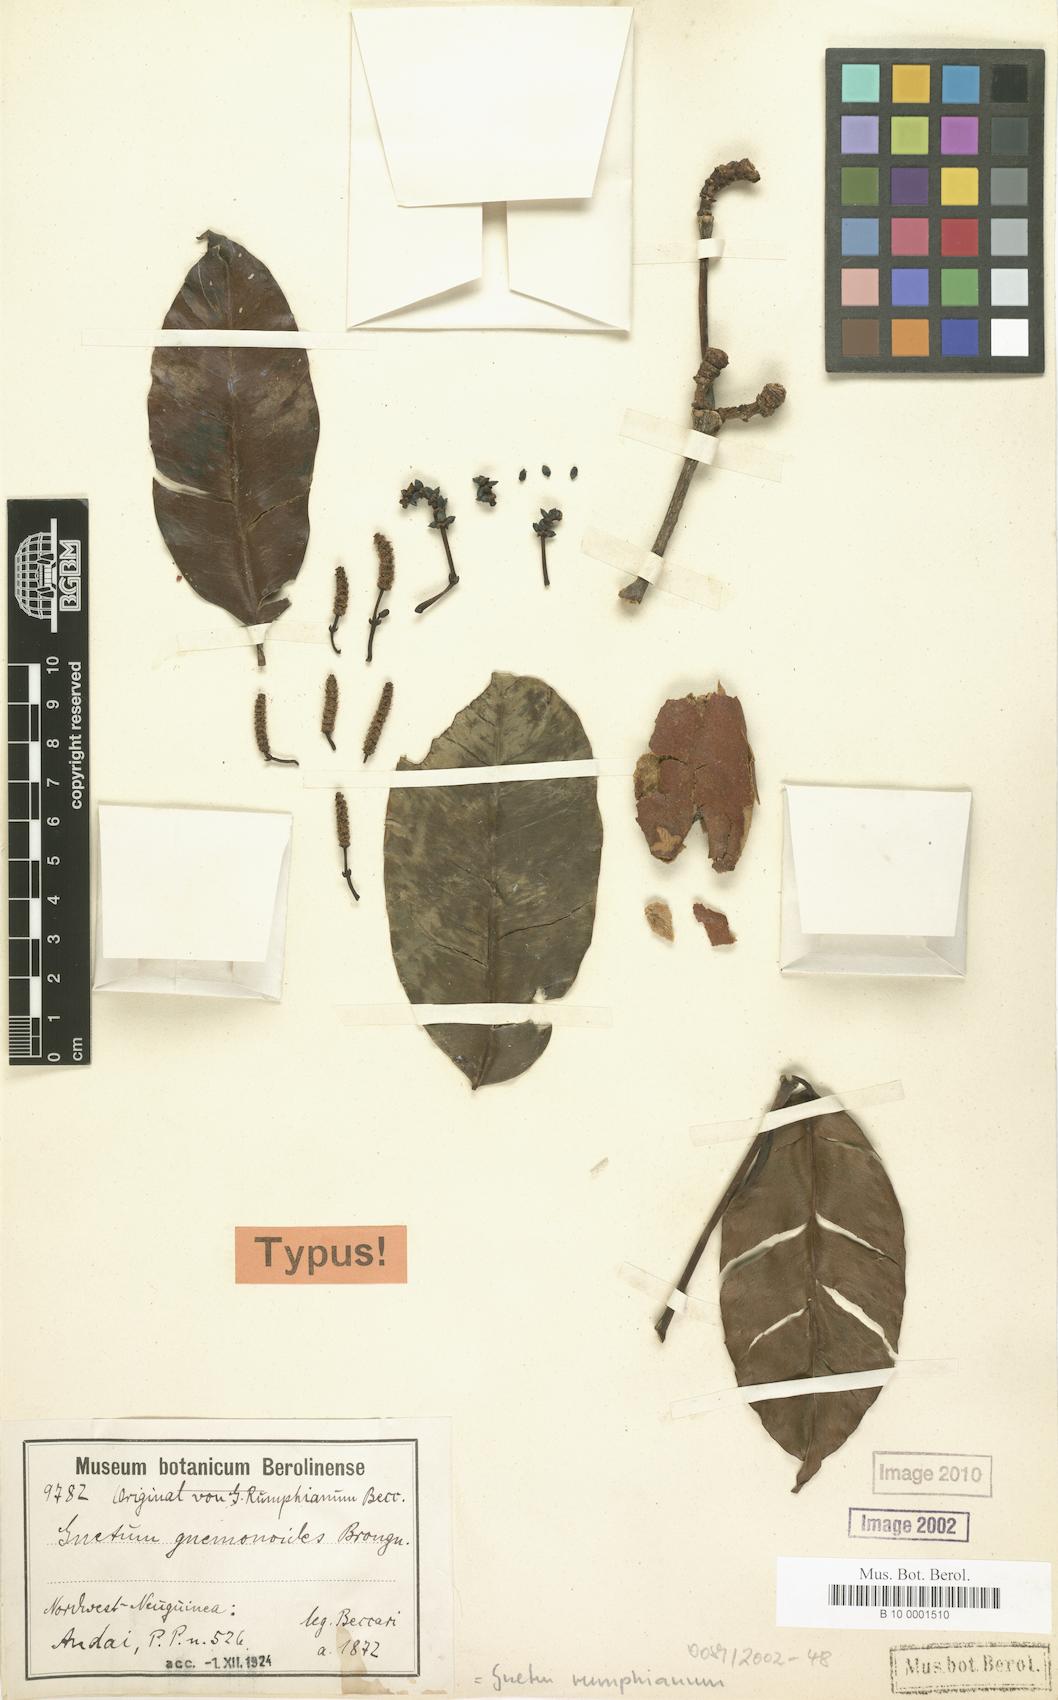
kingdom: Plantae
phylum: Tracheophyta
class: Gnetopsida
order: Gnetales
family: Gnetaceae
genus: Gnetum
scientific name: Gnetum gnemonoides
